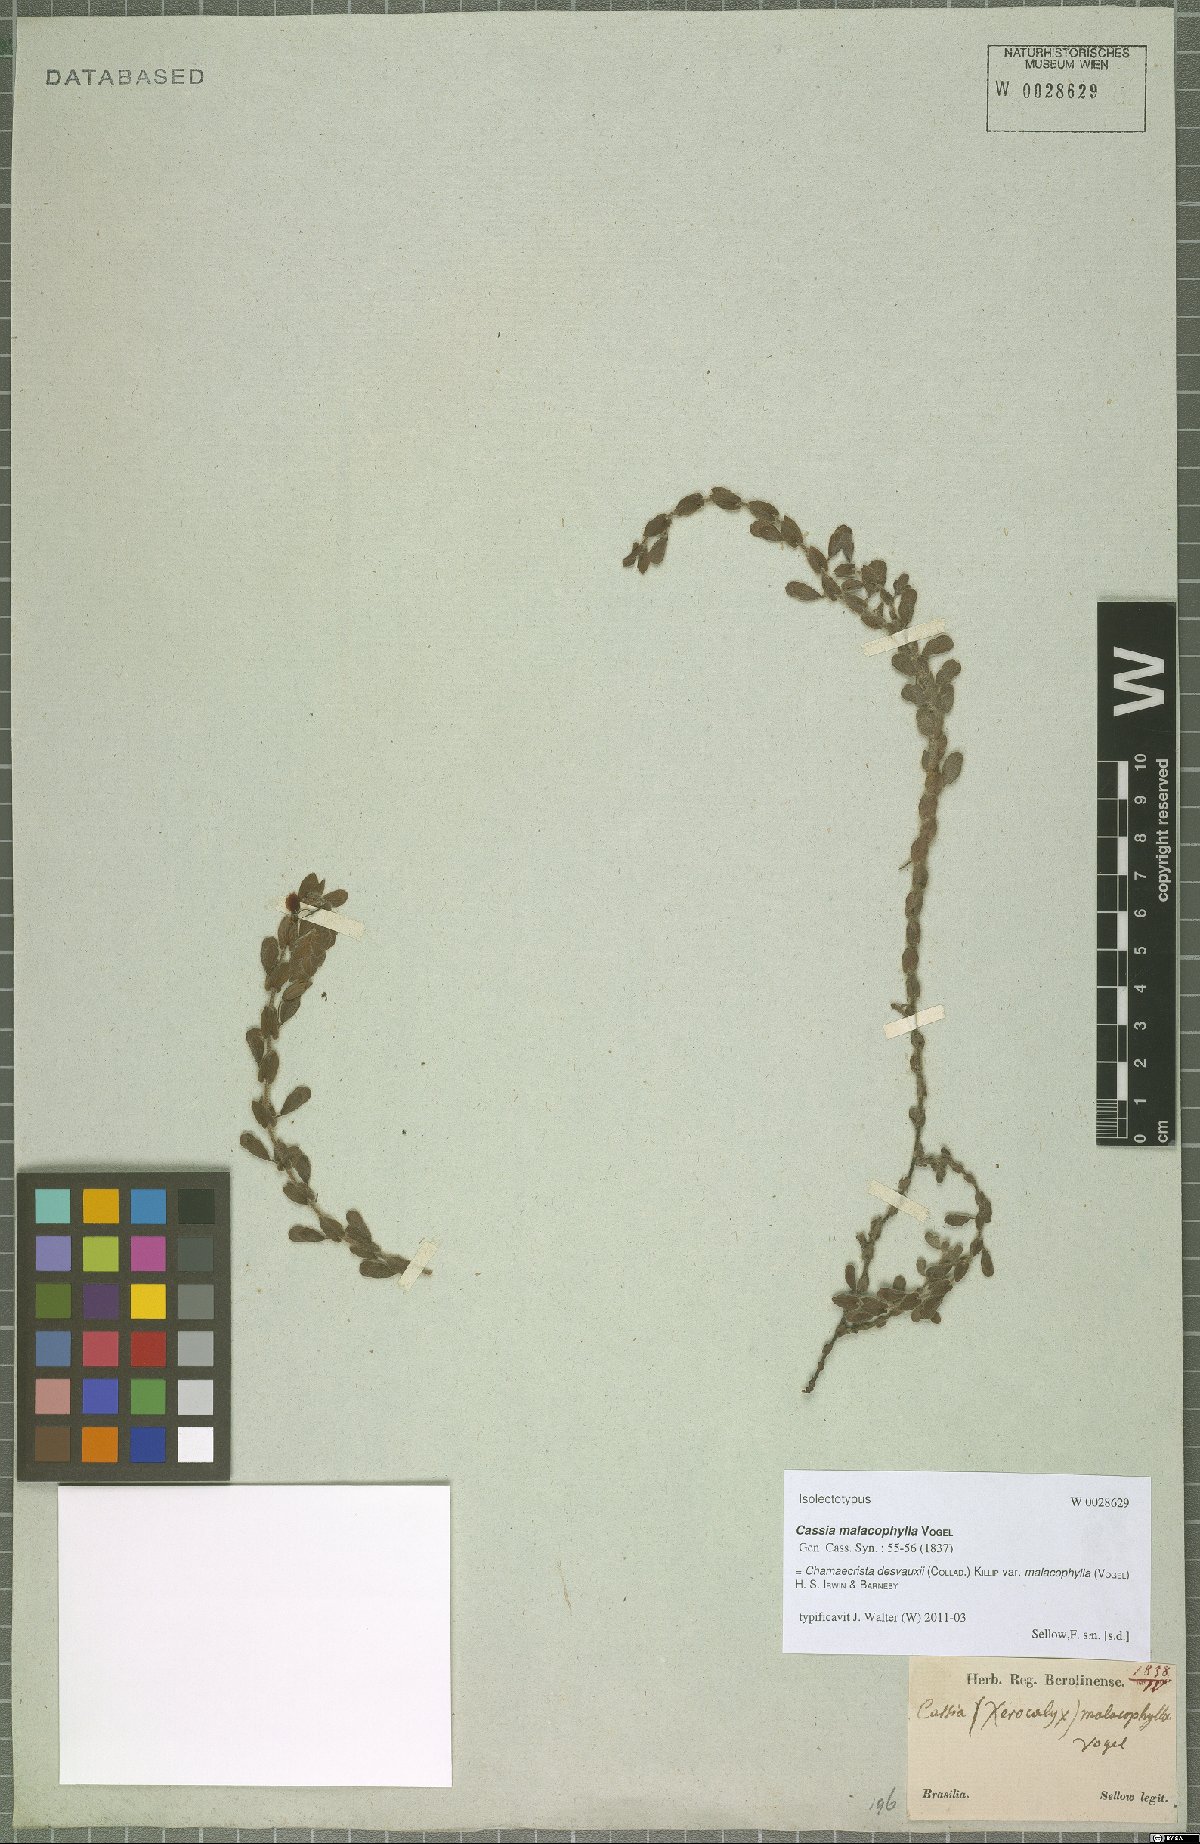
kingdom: Plantae
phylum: Tracheophyta
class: Magnoliopsida
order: Fabales
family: Fabaceae
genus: Chamaecrista
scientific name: Chamaecrista desvauxii
